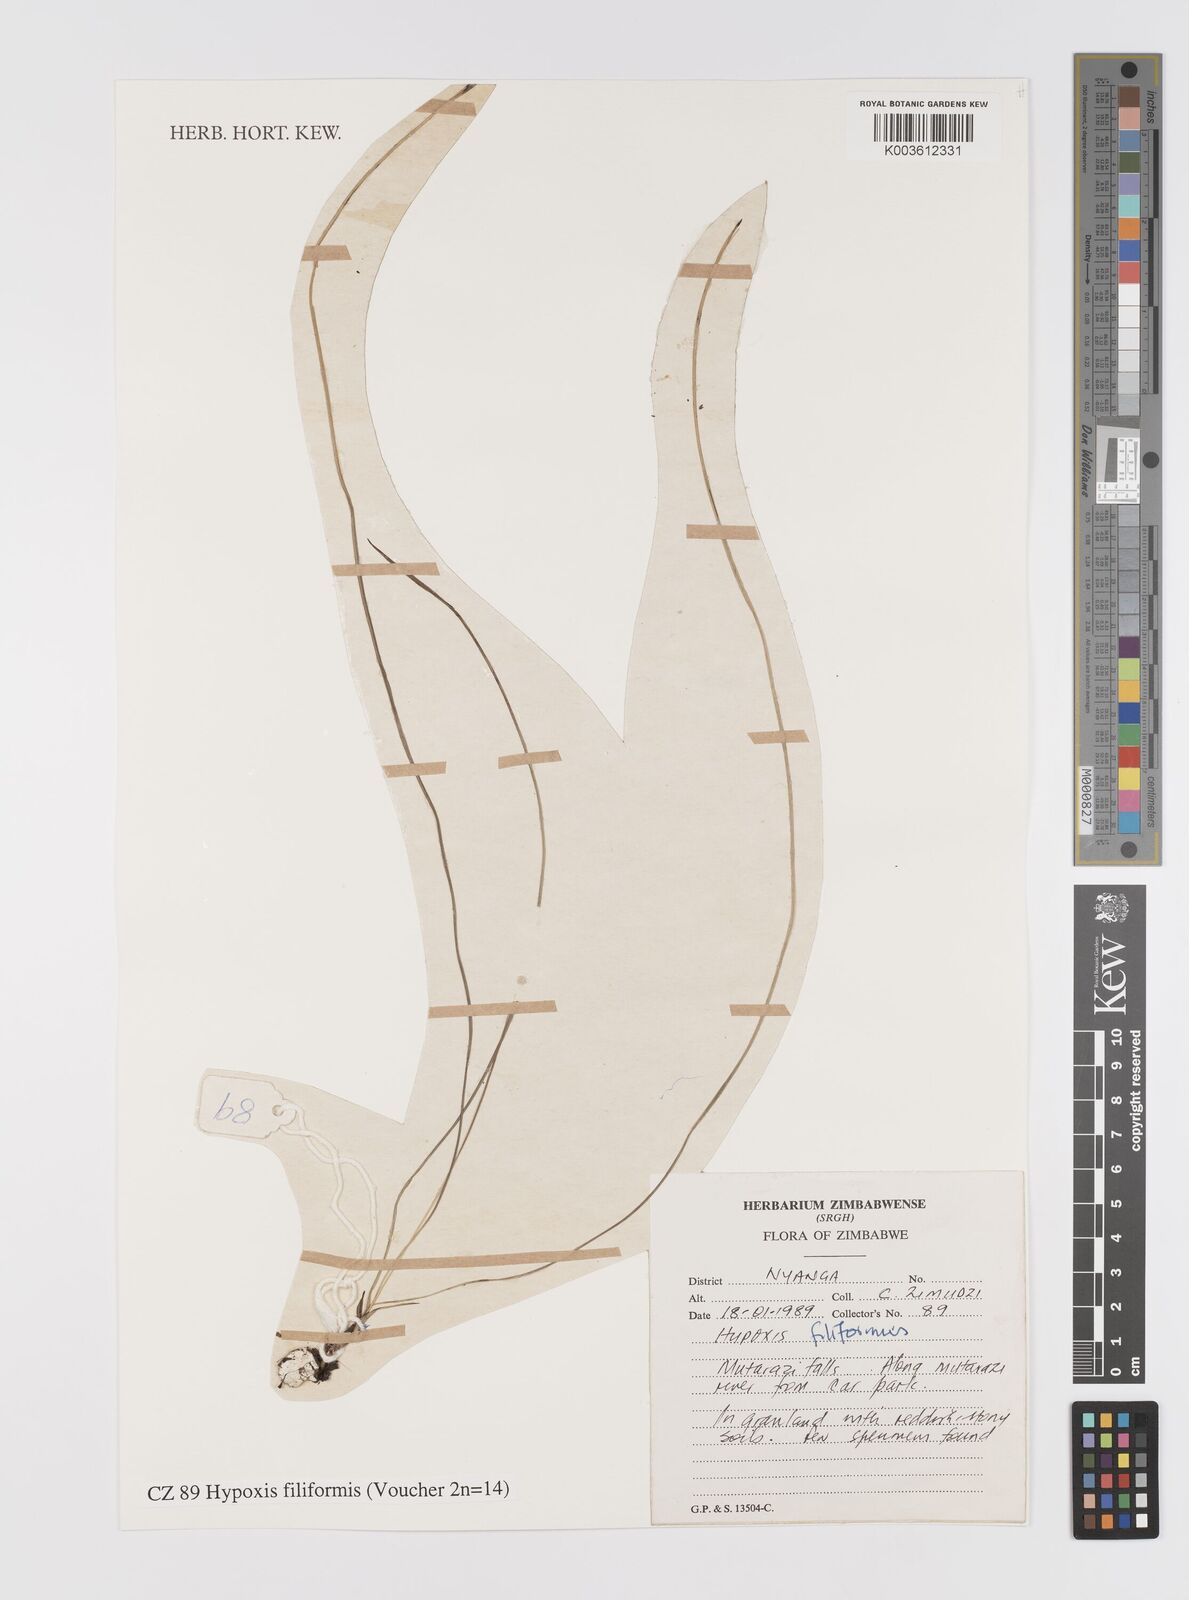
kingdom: Plantae
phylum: Tracheophyta
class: Liliopsida
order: Asparagales
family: Hypoxidaceae
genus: Hypoxis
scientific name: Hypoxis filiformis
